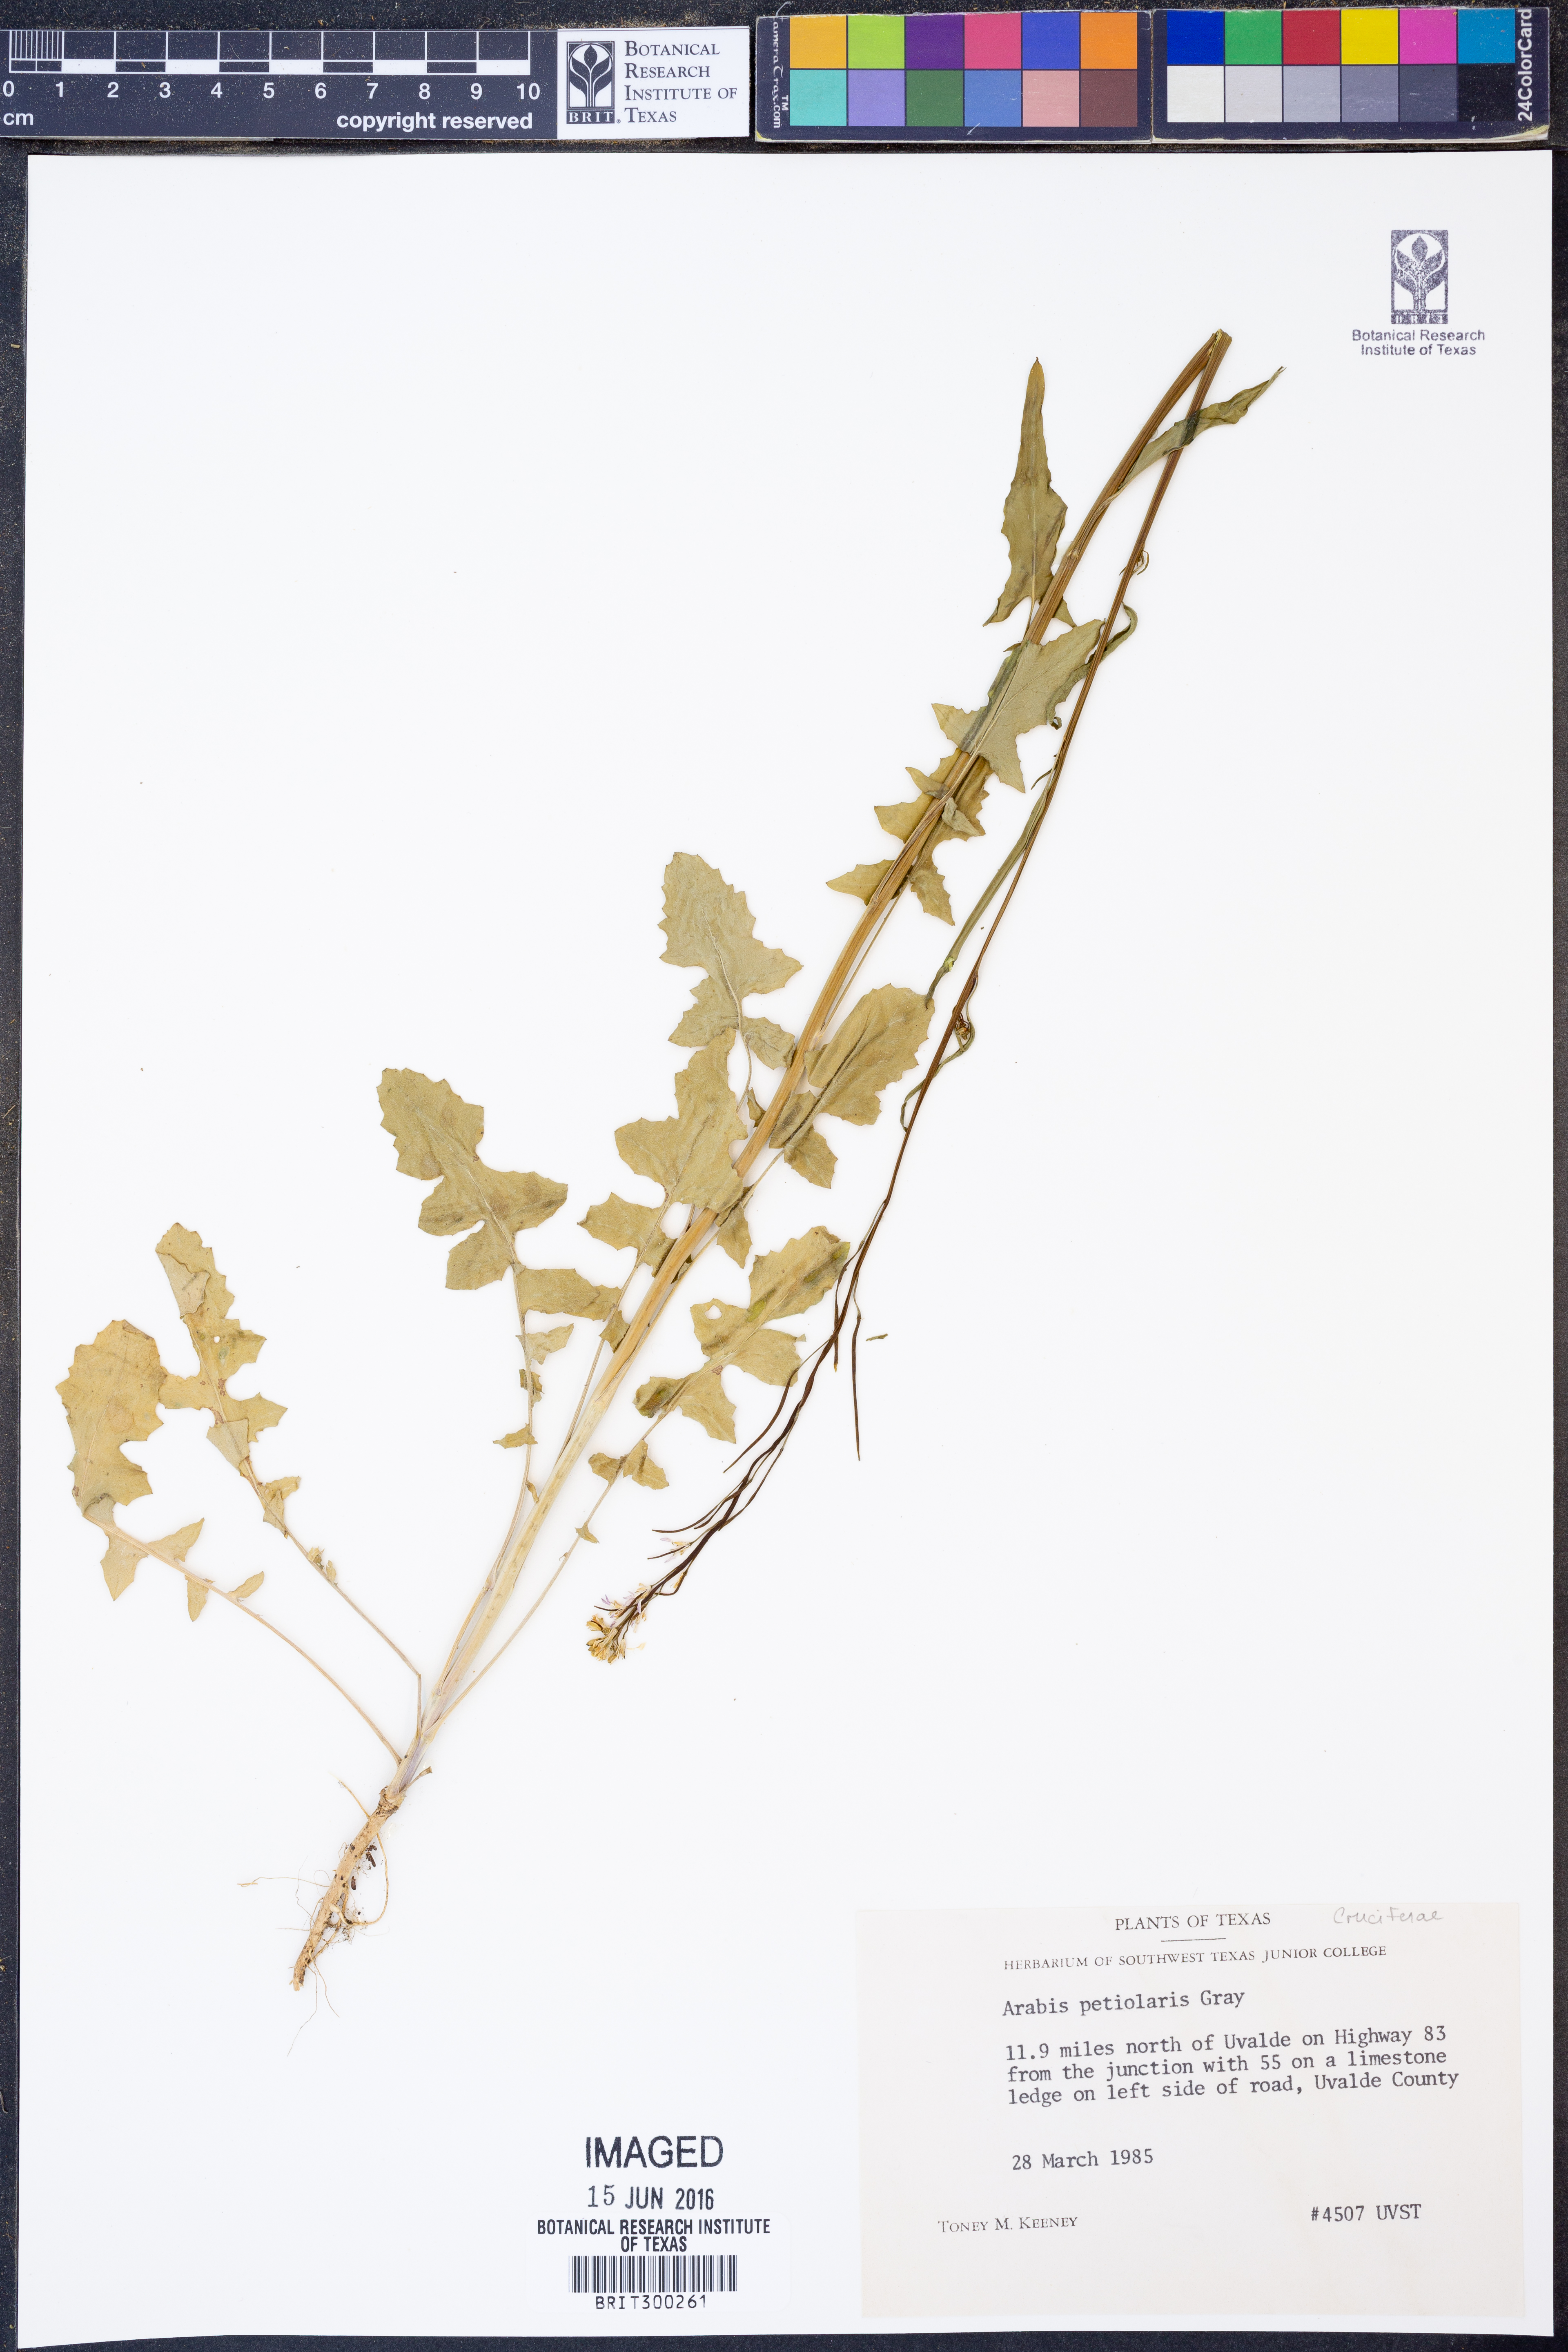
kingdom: Plantae
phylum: Tracheophyta
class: Magnoliopsida
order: Brassicales
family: Brassicaceae
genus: Streptanthus
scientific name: Streptanthus petiolaris
